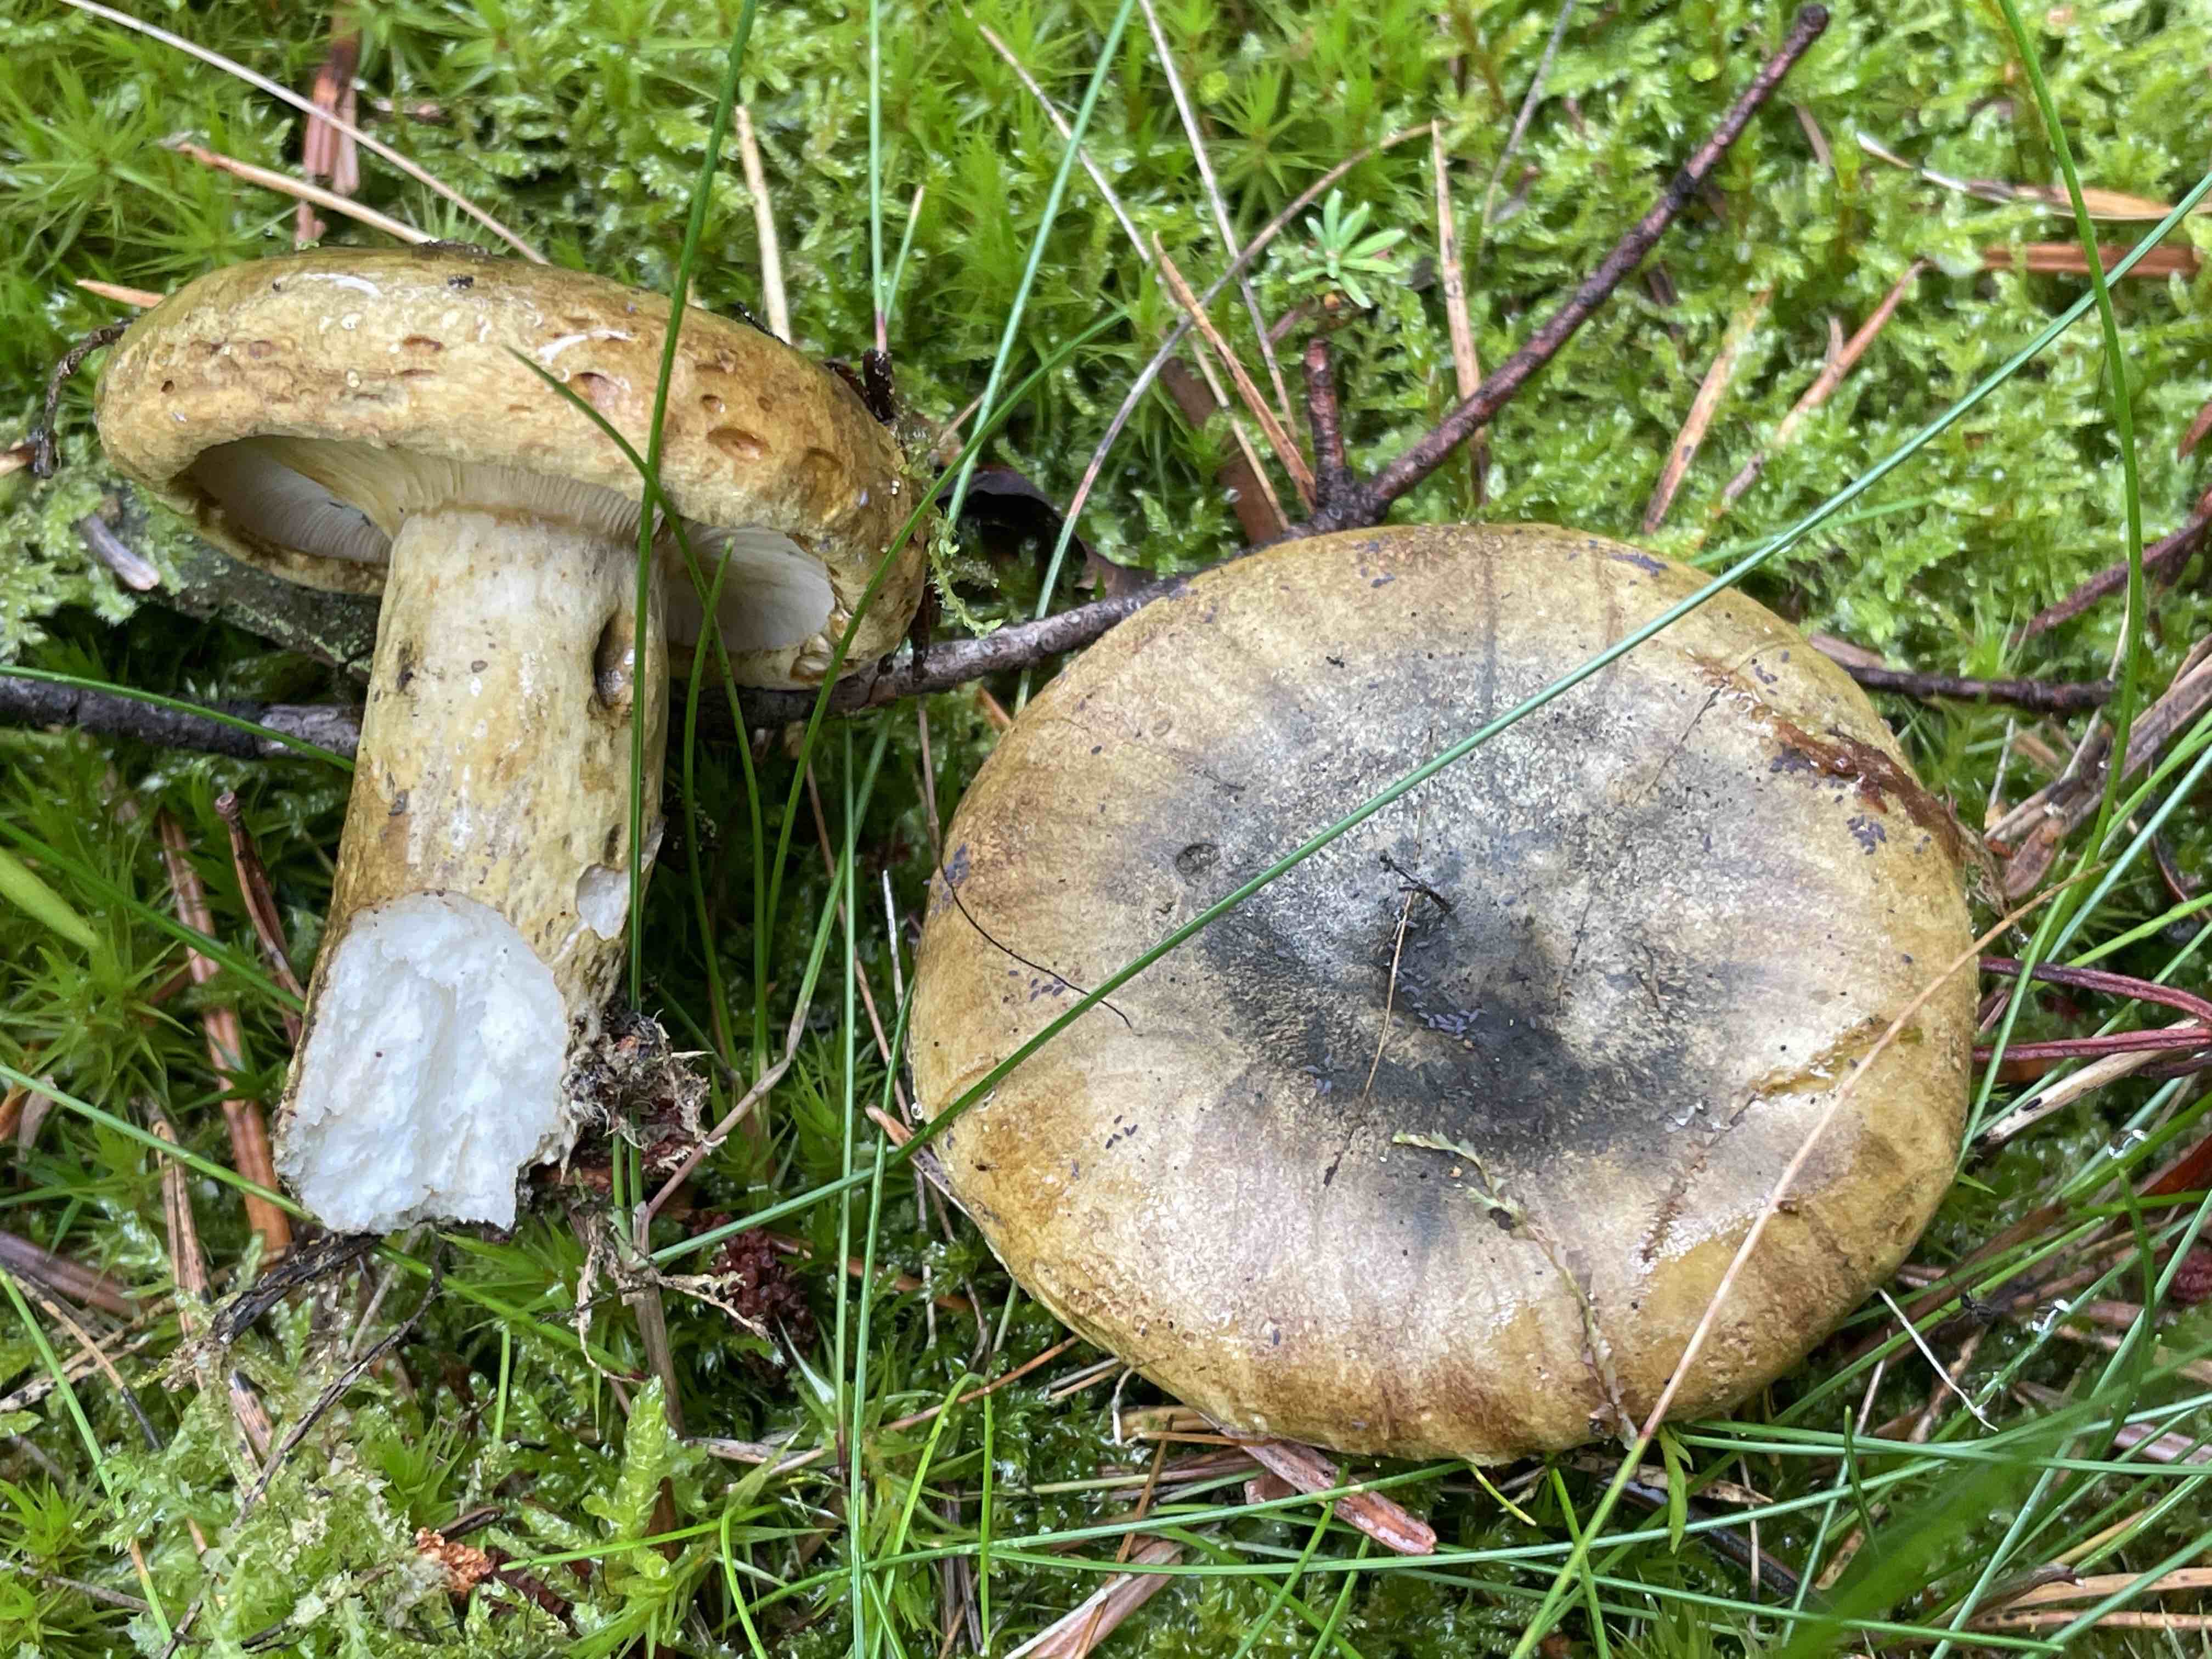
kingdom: Fungi
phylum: Basidiomycota
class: Agaricomycetes
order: Russulales
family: Russulaceae
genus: Lactarius
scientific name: Lactarius necator
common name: manddraber-mælkehat
